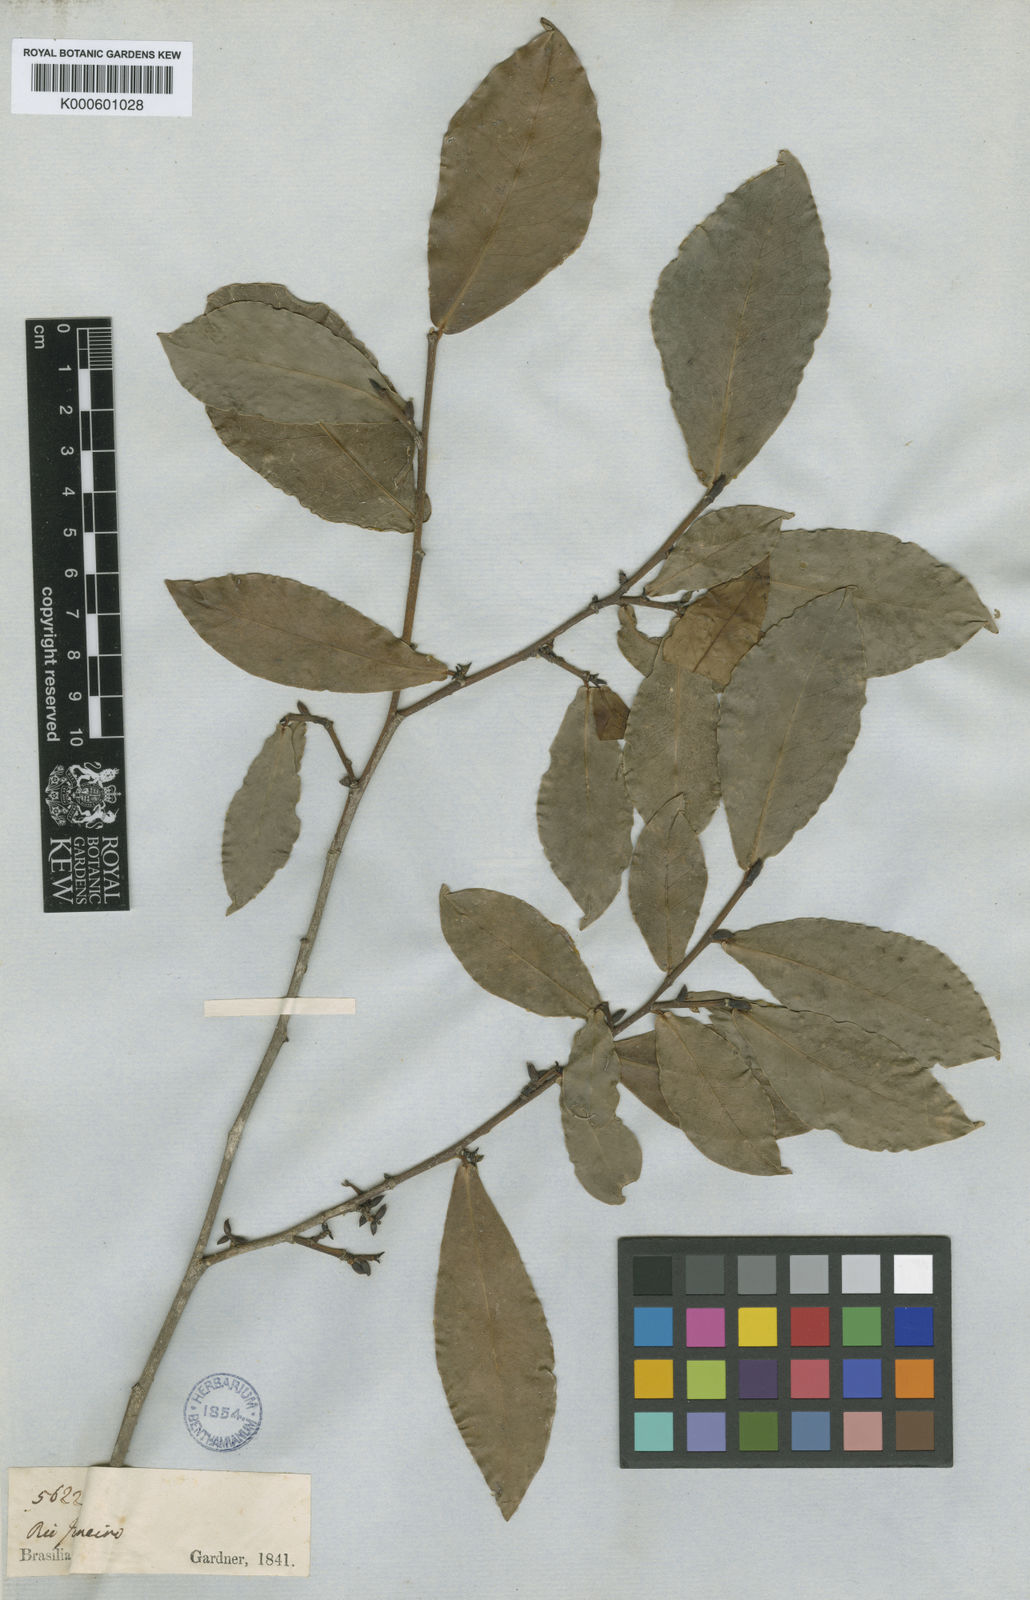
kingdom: Plantae
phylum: Tracheophyta
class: Magnoliopsida
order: Malpighiales
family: Euphorbiaceae
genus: Actinostemon
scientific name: Actinostemon
